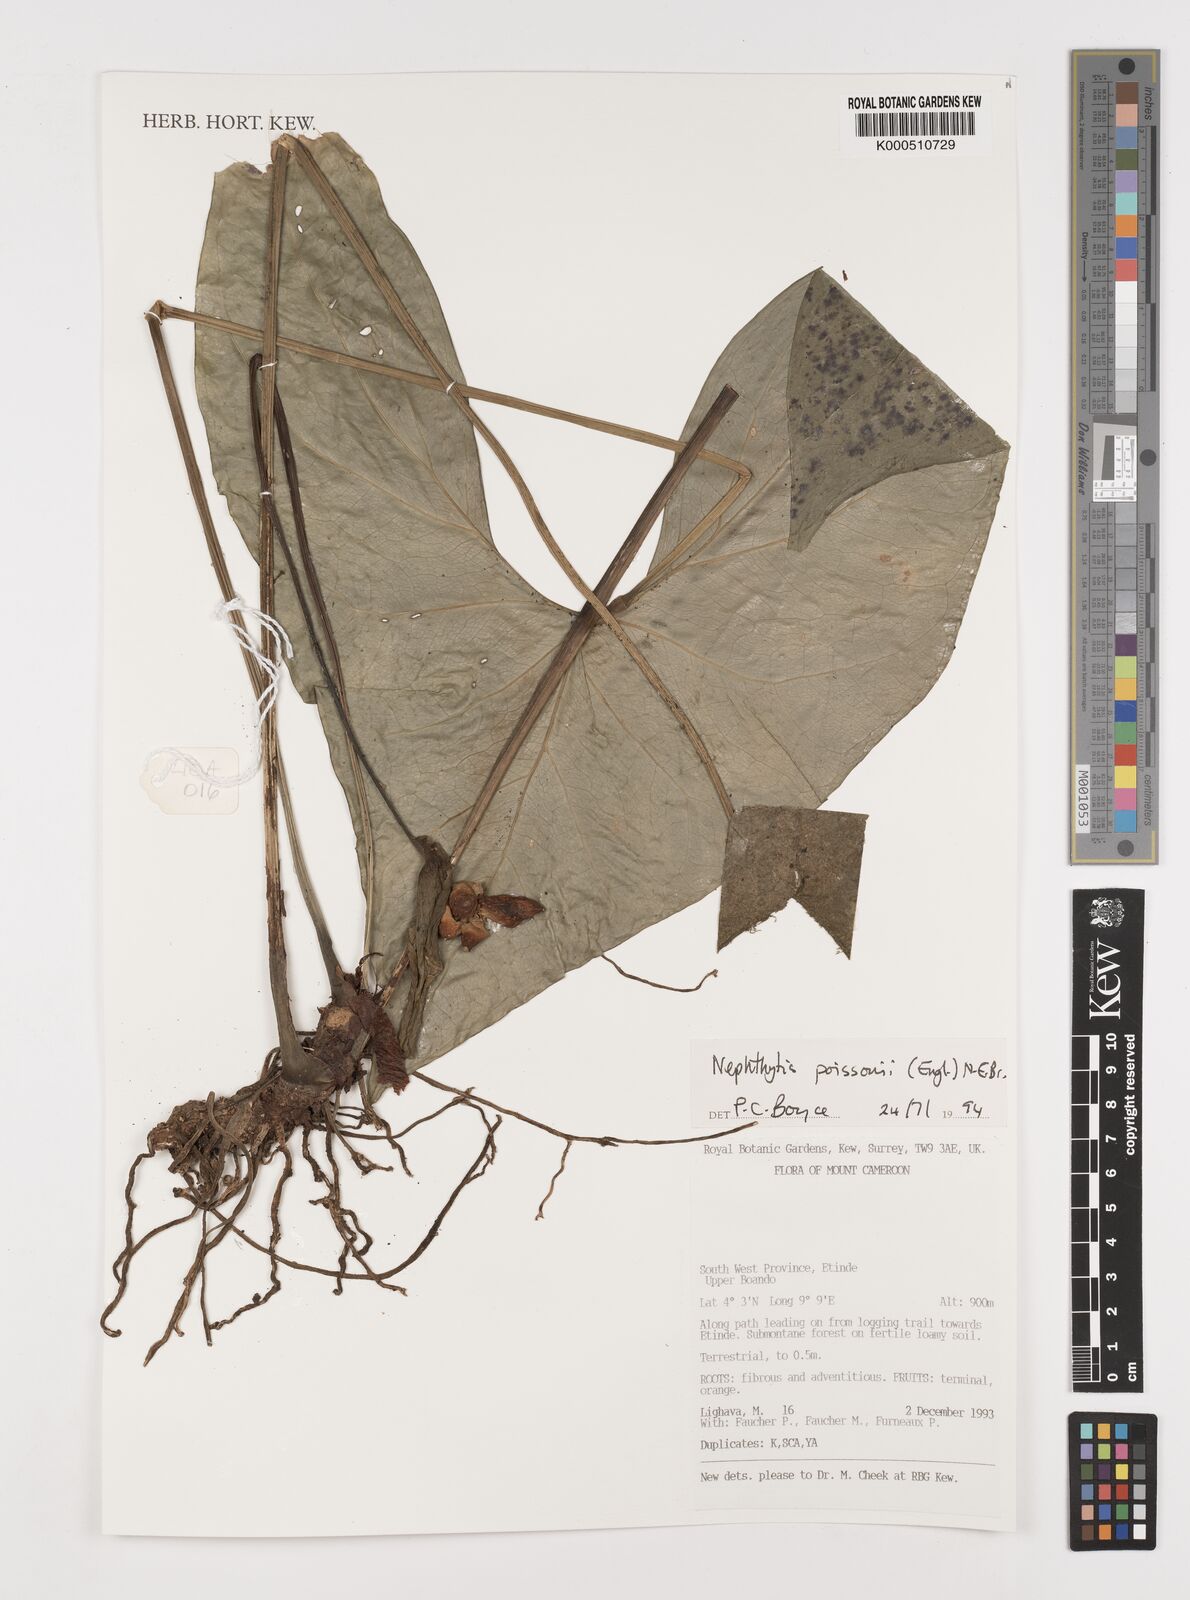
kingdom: Plantae
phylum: Tracheophyta
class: Liliopsida
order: Alismatales
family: Araceae
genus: Nephthytis
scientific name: Nephthytis poissonii
